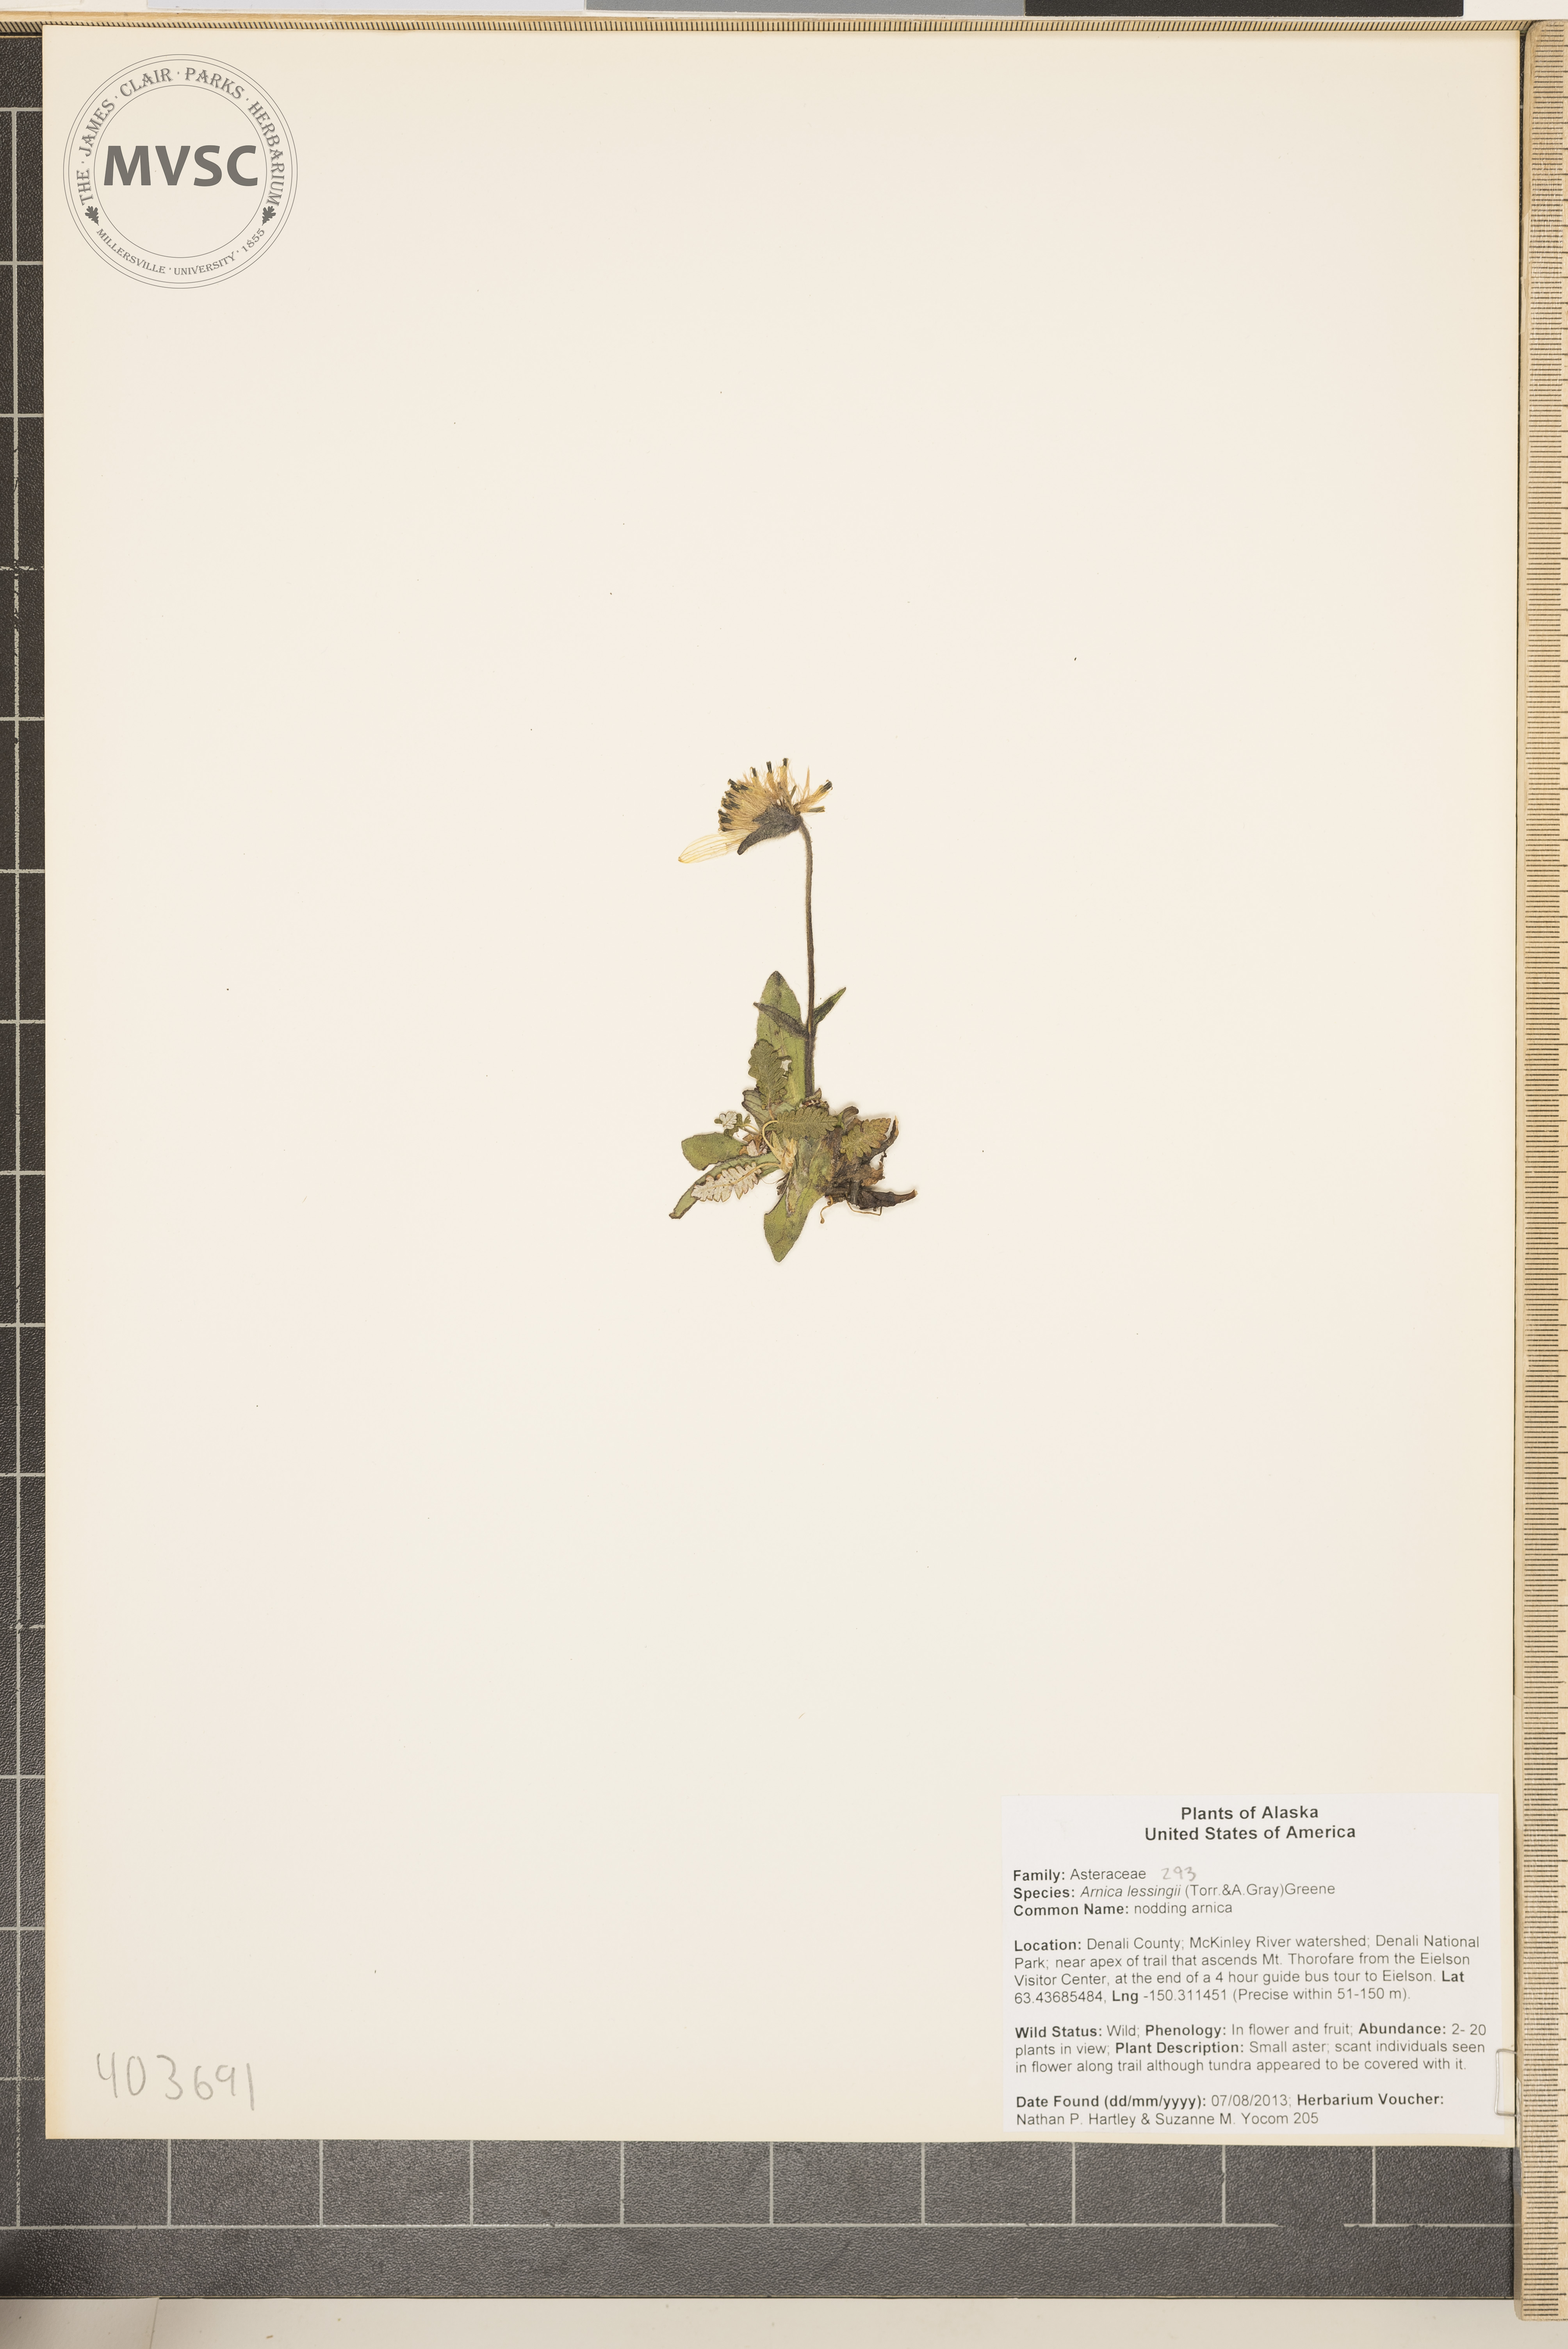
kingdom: Plantae
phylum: Tracheophyta
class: Magnoliopsida
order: Asterales
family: Asteraceae
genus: Arnica
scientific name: Arnica lessingii
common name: nodding arnica
